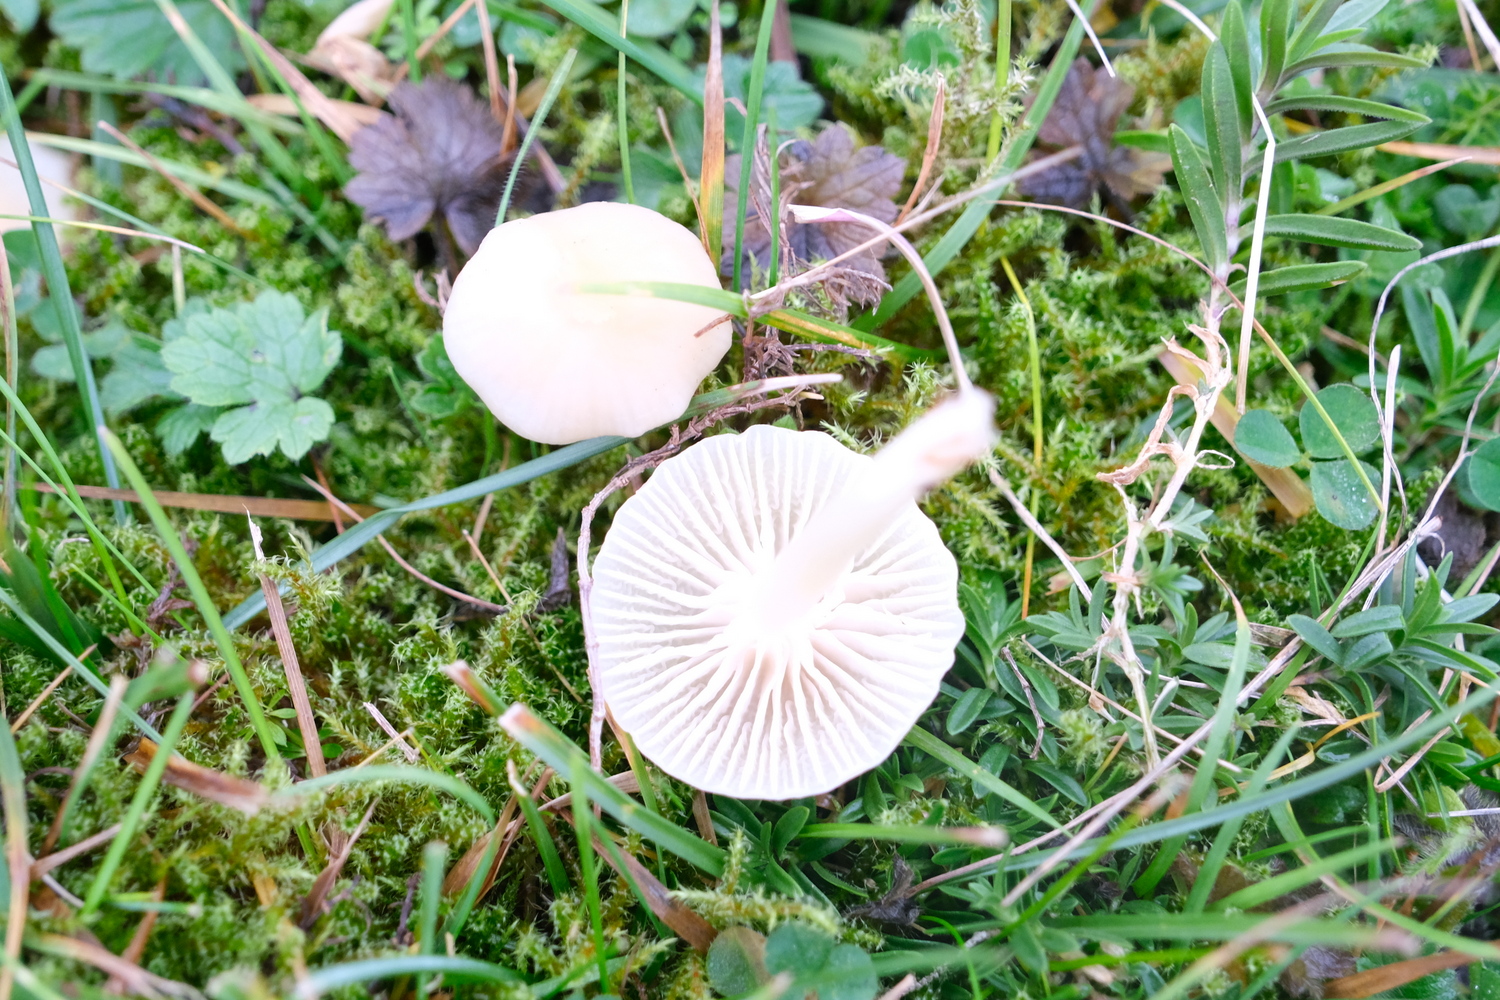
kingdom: Fungi
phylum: Basidiomycota
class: Agaricomycetes
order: Agaricales
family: Hygrophoraceae
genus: Cuphophyllus
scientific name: Cuphophyllus russocoriaceus
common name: ruslæder-vokshat
